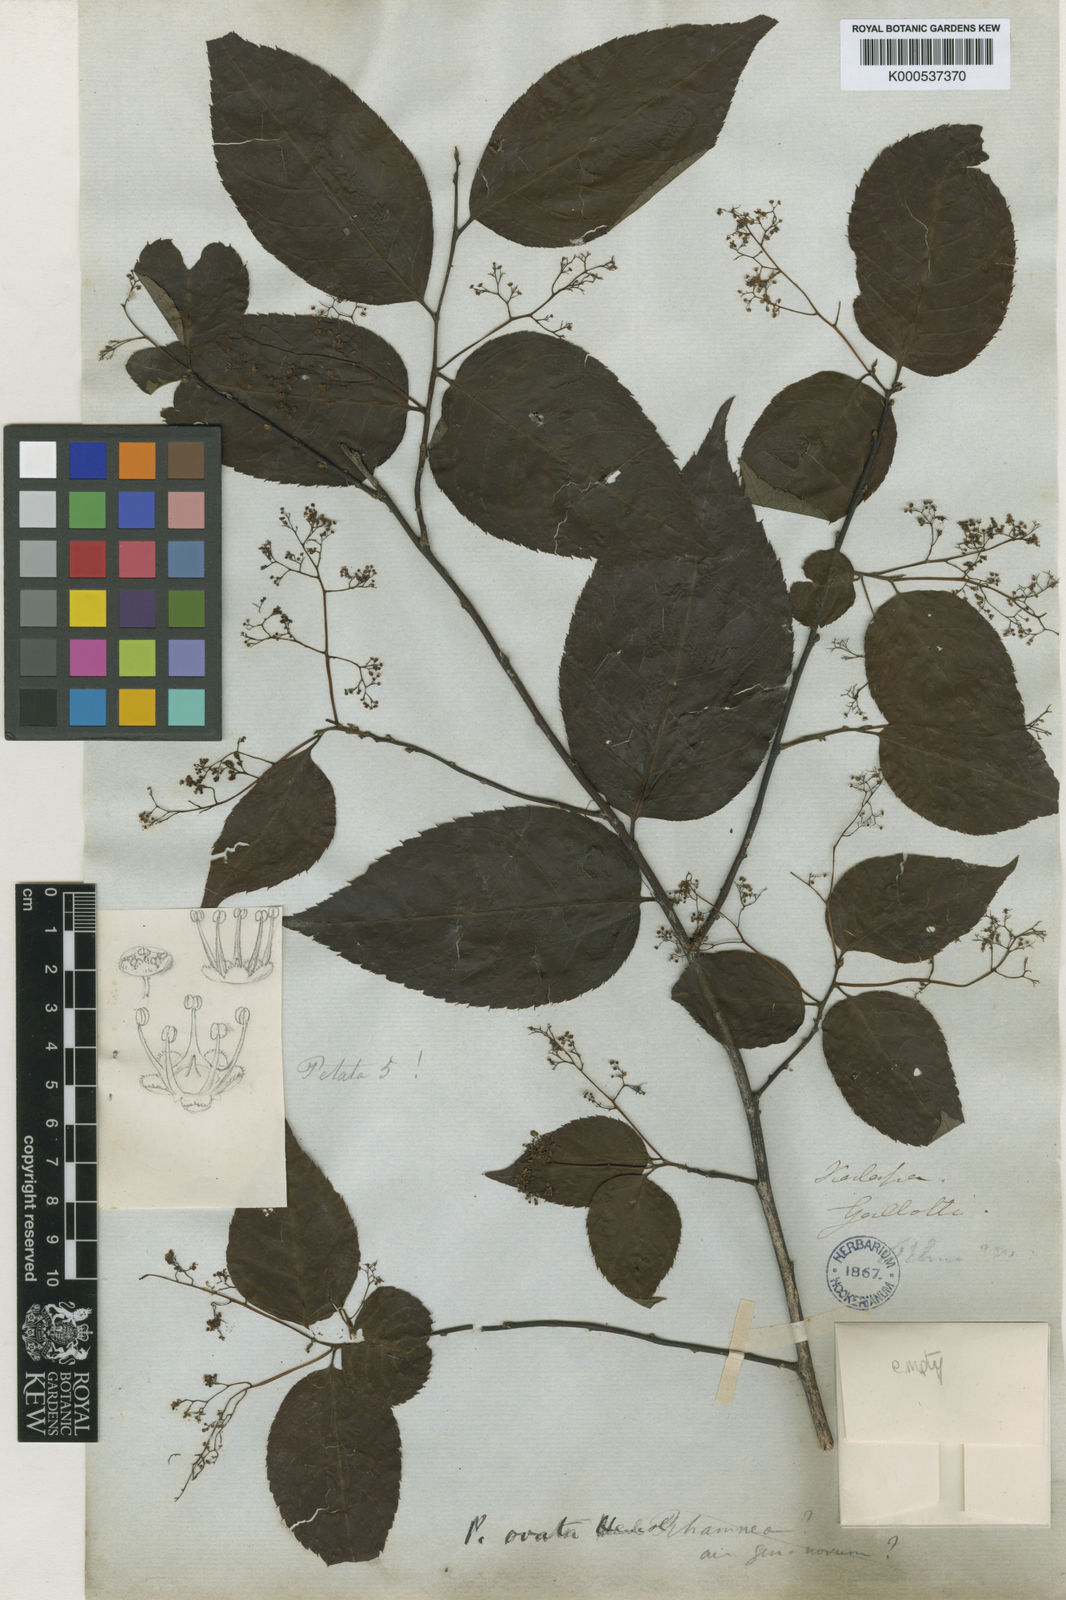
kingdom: Plantae
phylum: Tracheophyta
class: Magnoliopsida
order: Huerteales
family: Dipentodontaceae
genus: Perrottetia
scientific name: Perrottetia ovata
